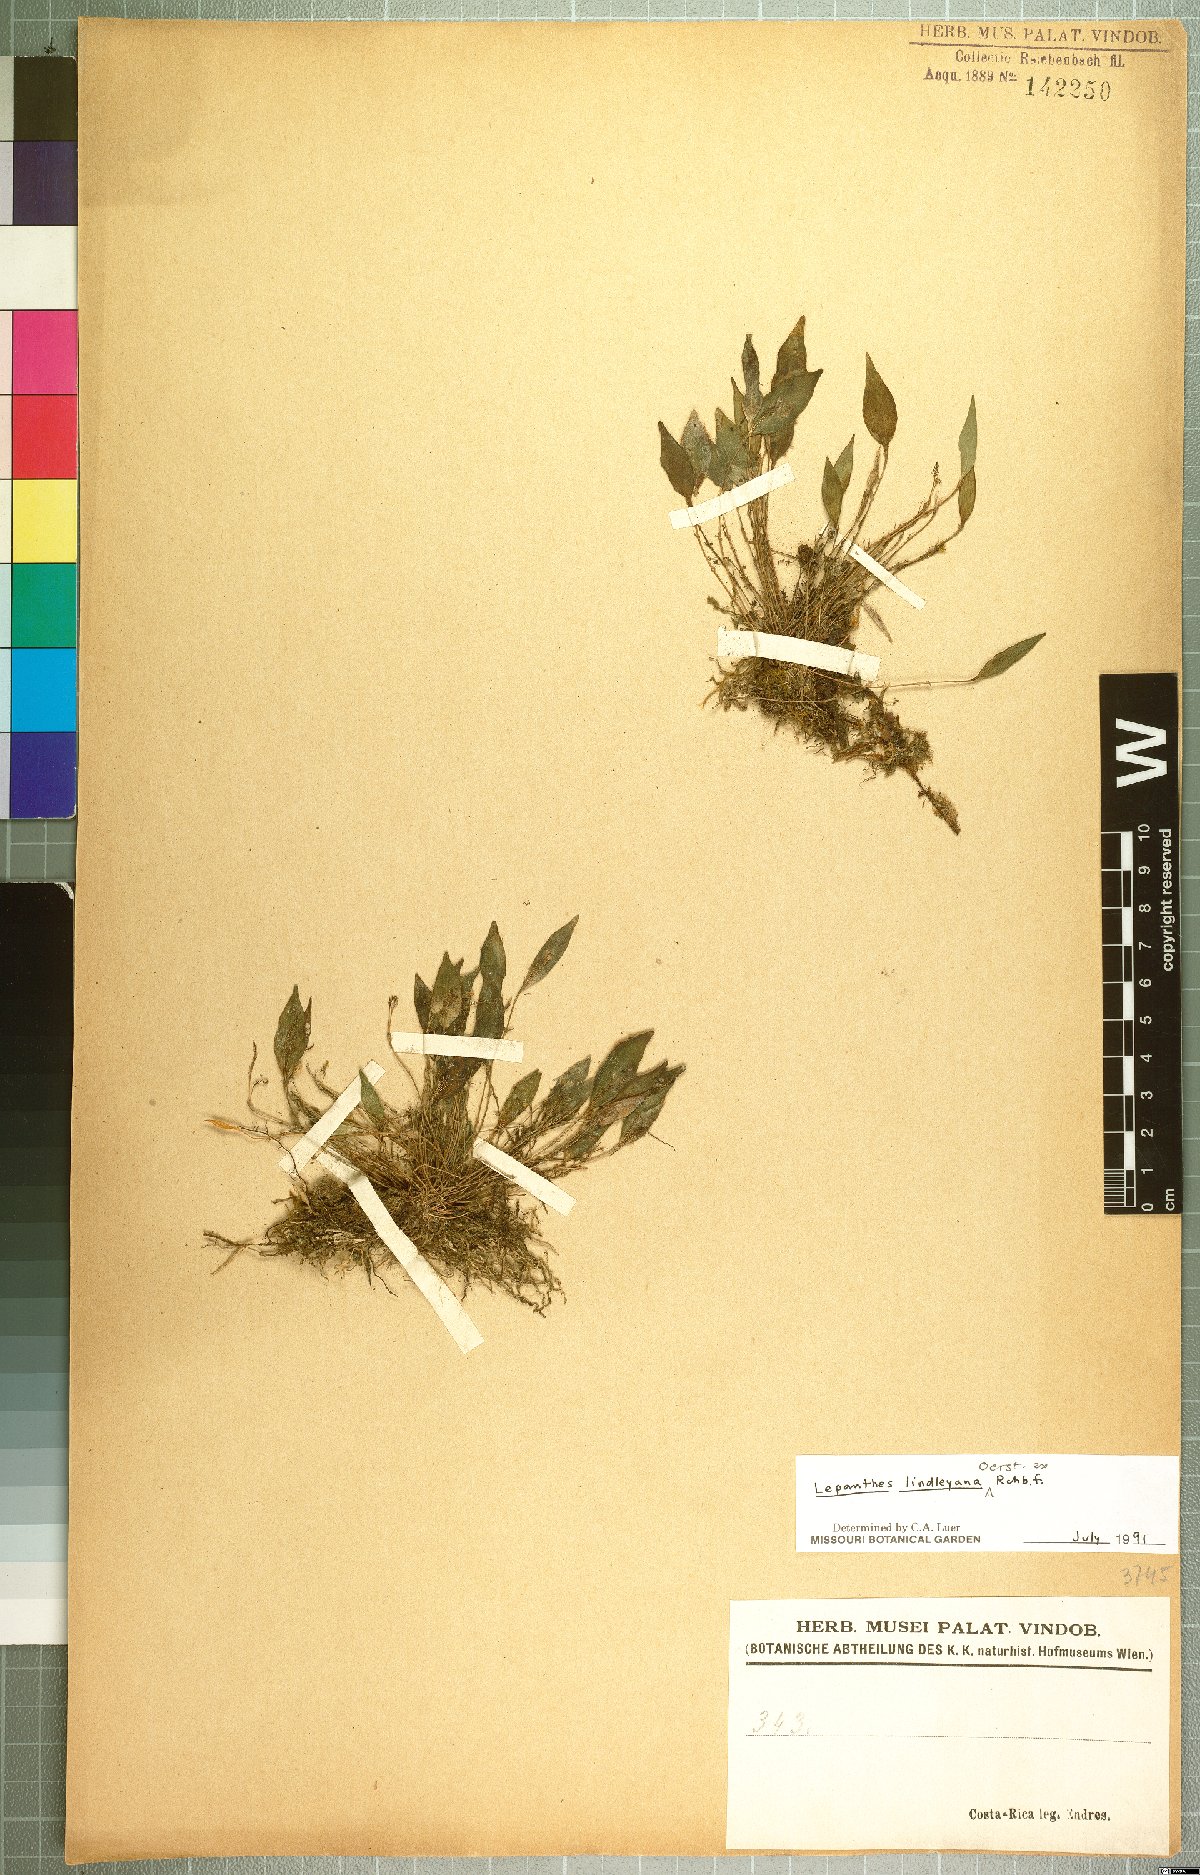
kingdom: Plantae
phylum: Tracheophyta
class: Liliopsida
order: Asparagales
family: Orchidaceae
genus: Lepanthes
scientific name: Lepanthes lindleyana
